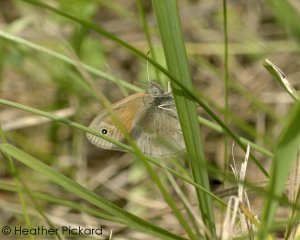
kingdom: Animalia
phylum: Arthropoda
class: Insecta
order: Lepidoptera
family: Nymphalidae
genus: Coenonympha
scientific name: Coenonympha tullia
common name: Large Heath
